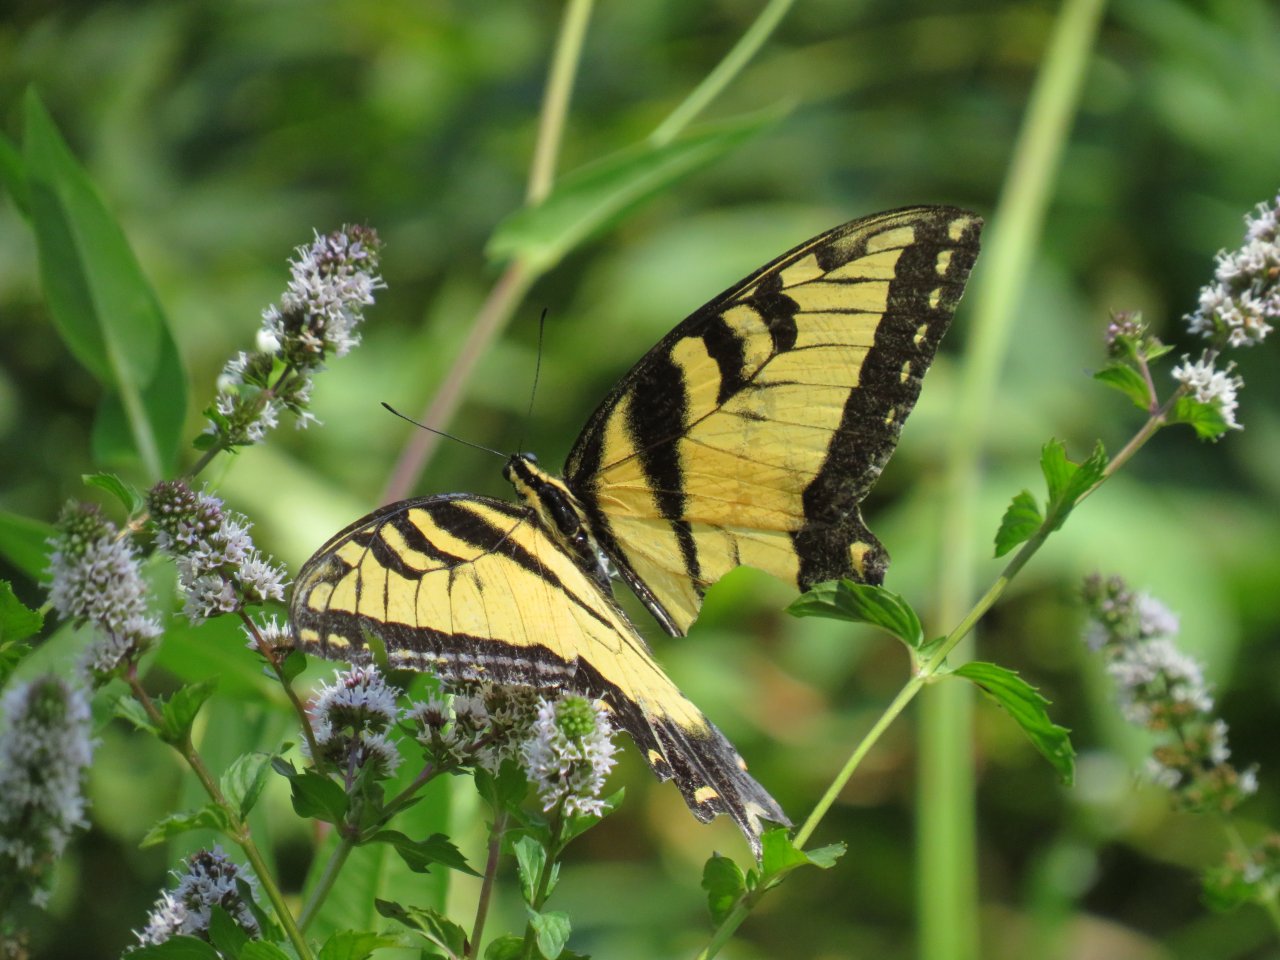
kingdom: Animalia
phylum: Arthropoda
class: Insecta
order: Lepidoptera
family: Papilionidae
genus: Pterourus
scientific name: Pterourus glaucus
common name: Eastern Tiger Swallowtail
